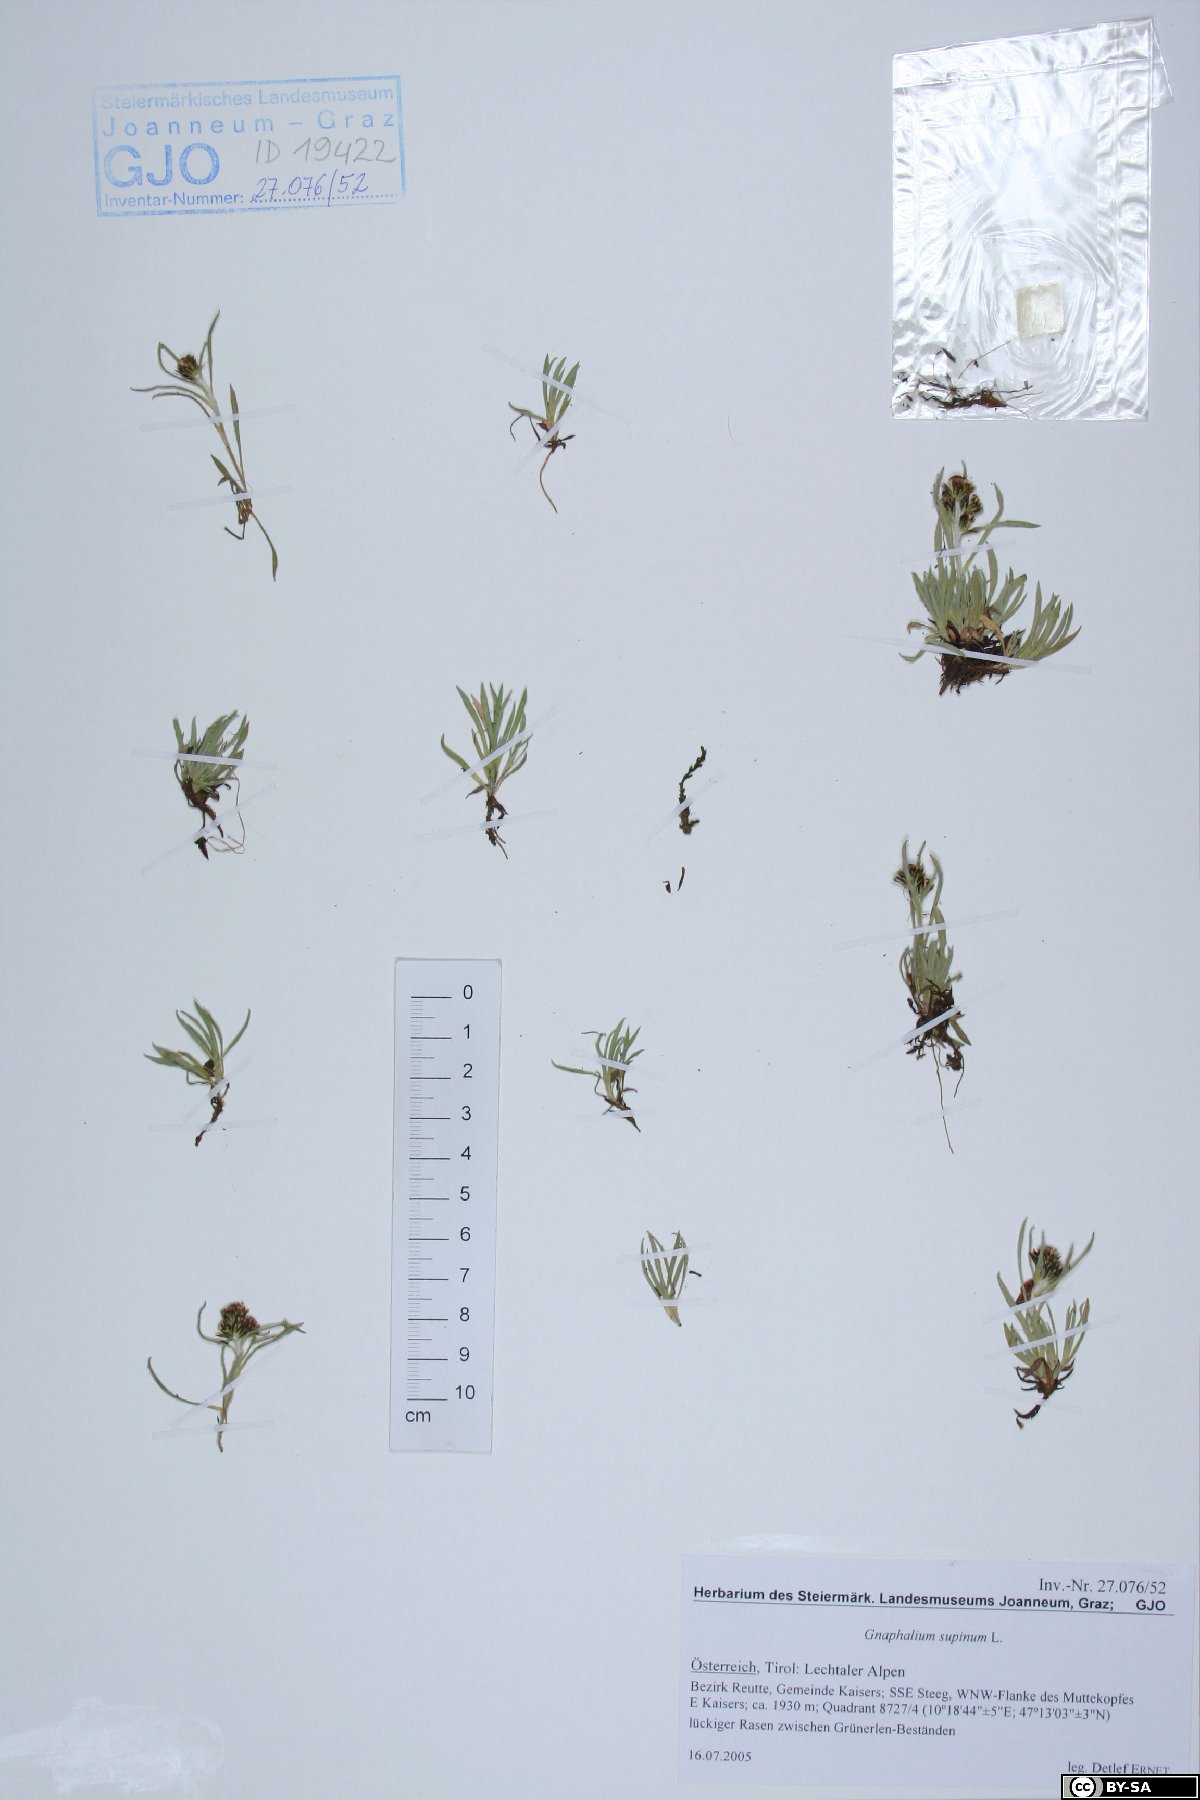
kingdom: Plantae
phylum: Tracheophyta
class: Magnoliopsida
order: Asterales
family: Asteraceae
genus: Omalotheca
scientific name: Omalotheca supina
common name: Alpine arctic-cudweed
